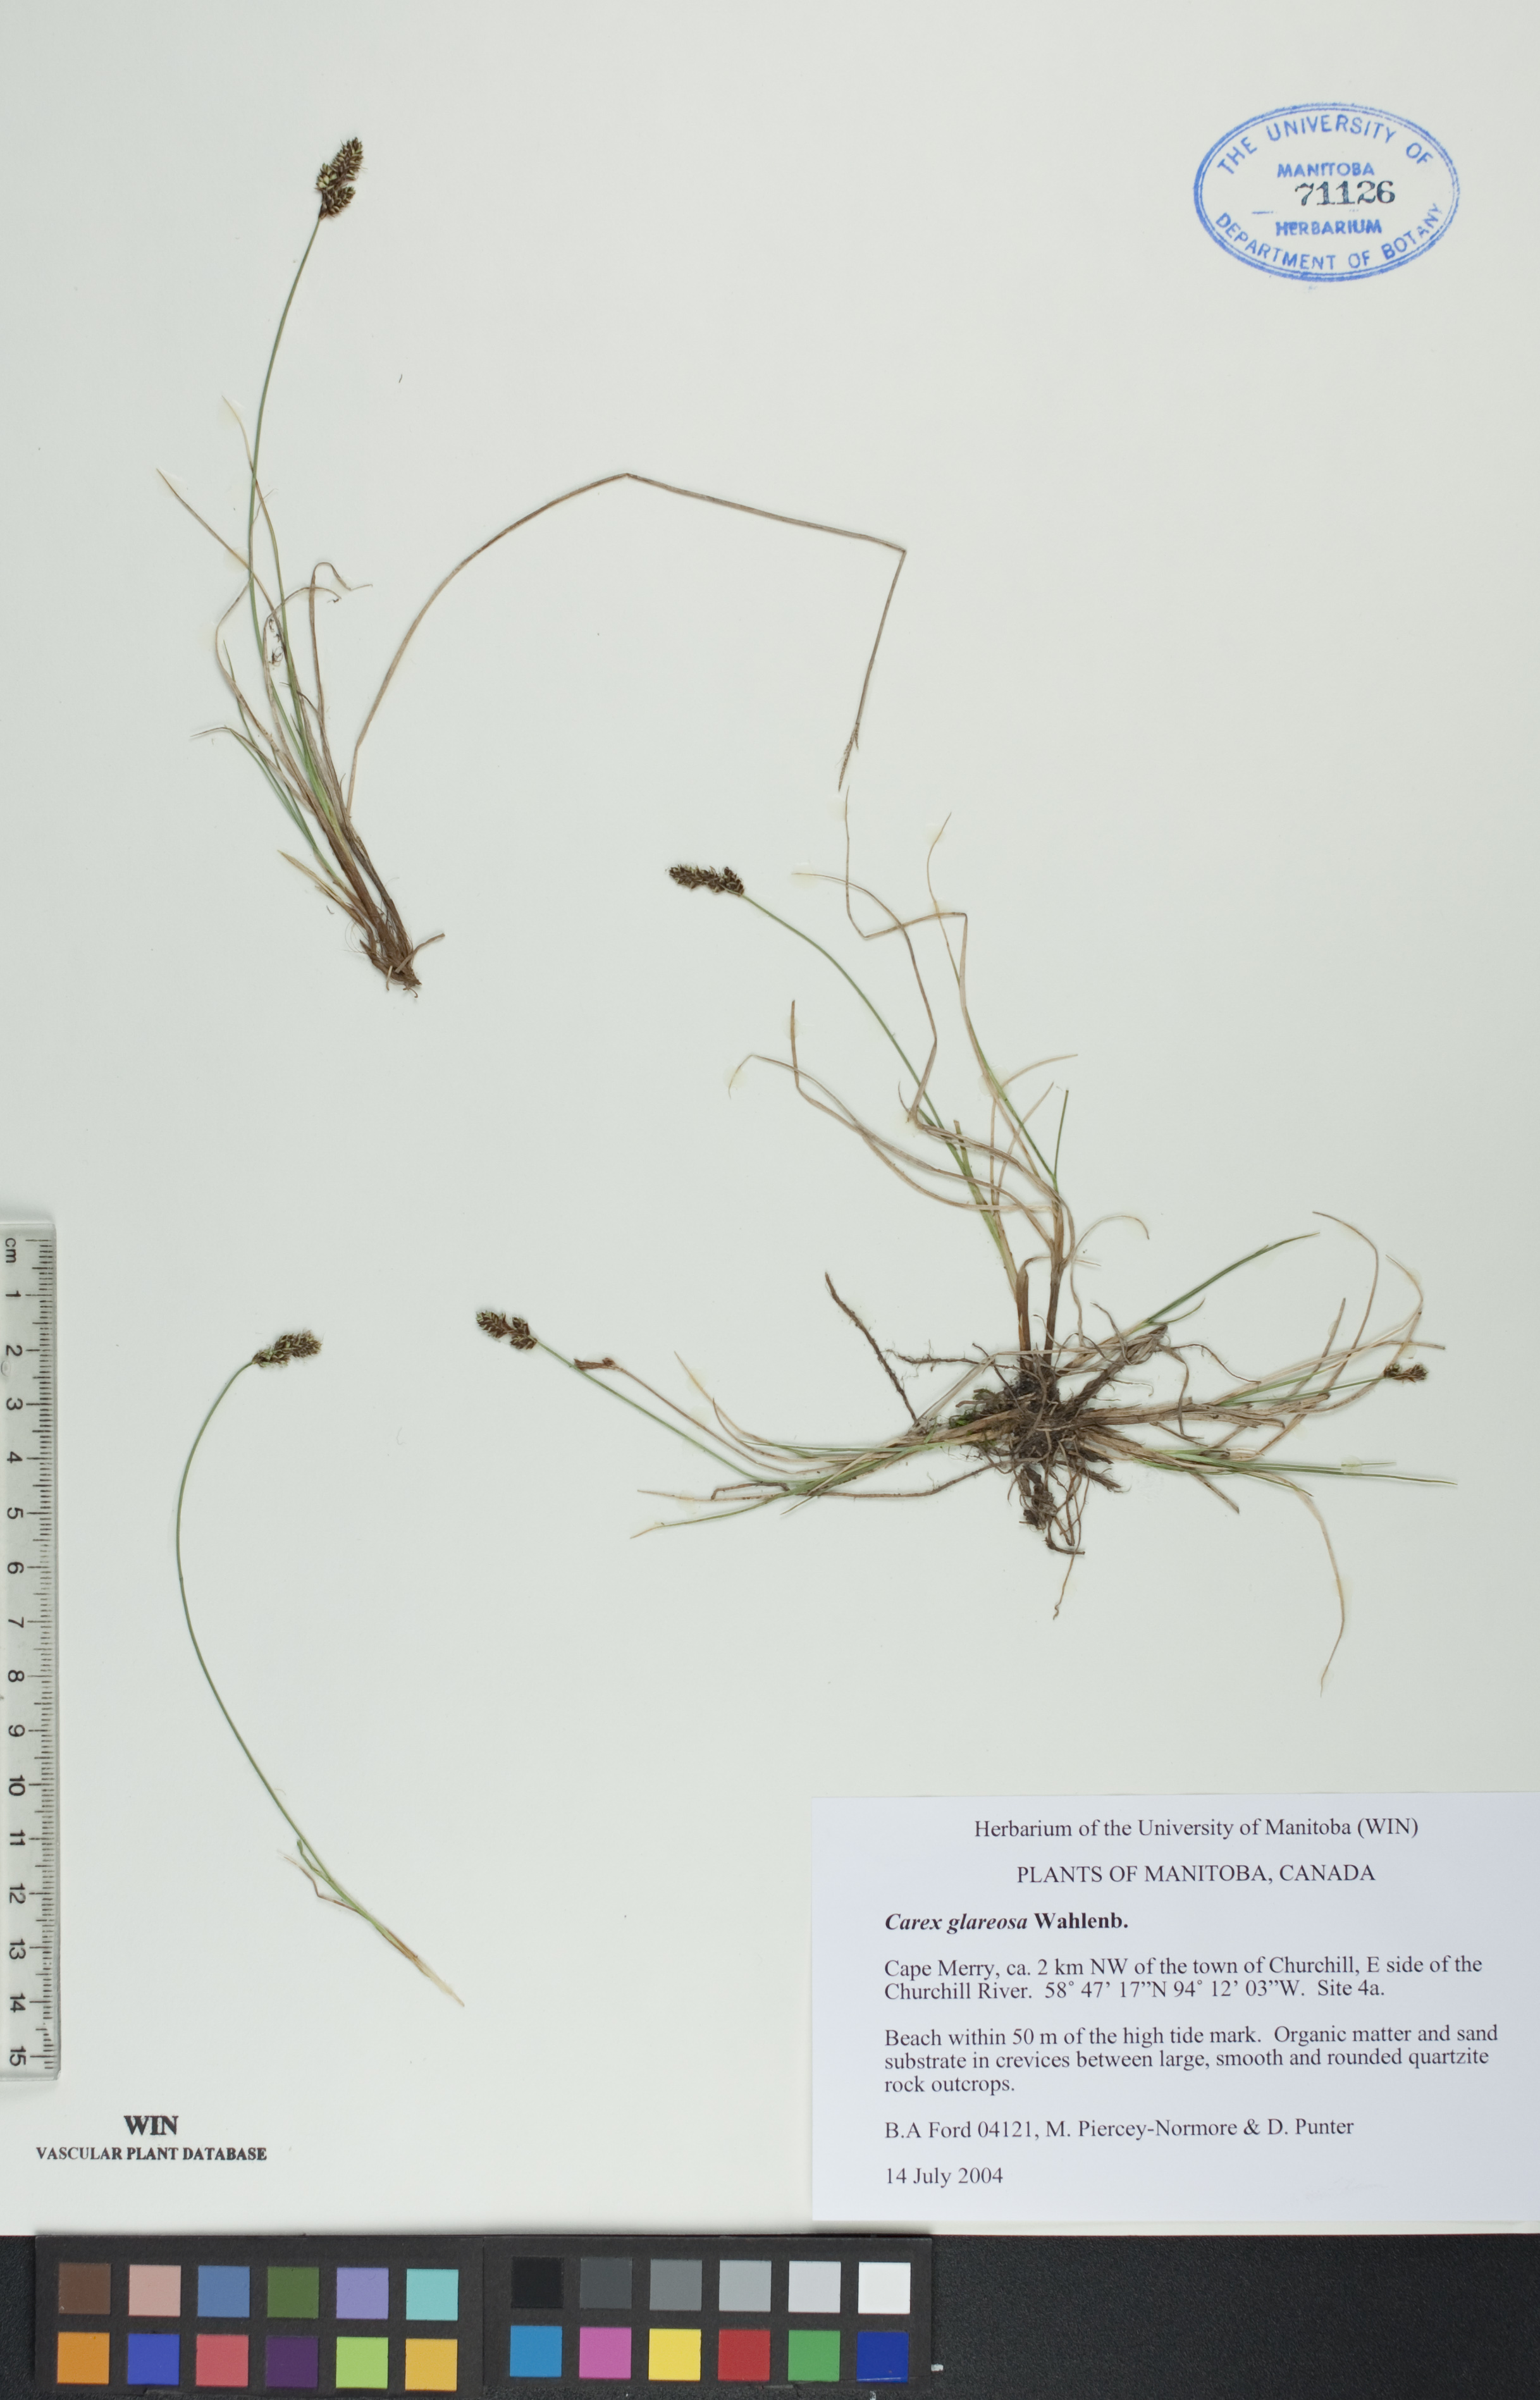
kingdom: Plantae
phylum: Tracheophyta
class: Liliopsida
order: Poales
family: Cyperaceae
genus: Carex
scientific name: Carex glareosa
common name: Clustered sedge
